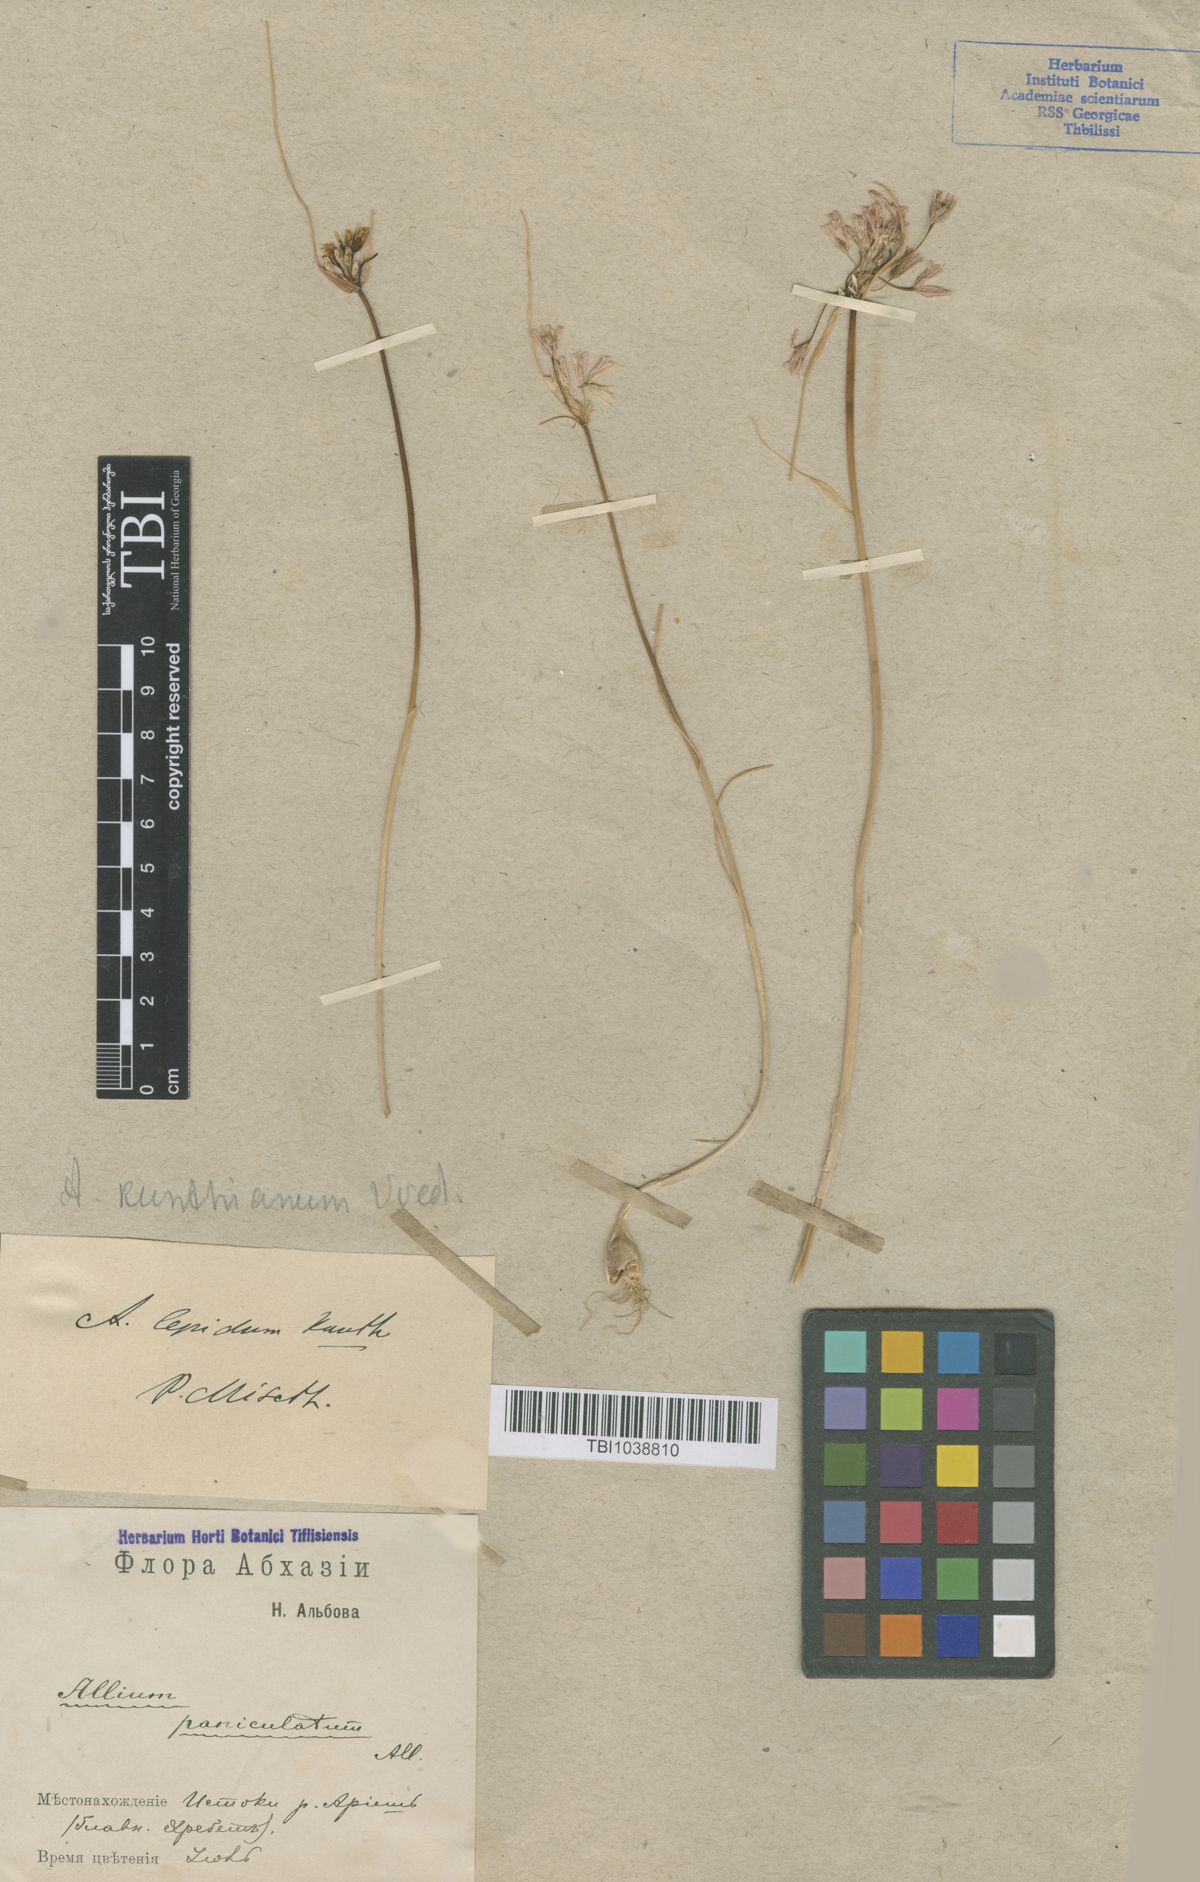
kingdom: Plantae
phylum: Tracheophyta
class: Liliopsida
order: Asparagales
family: Amaryllidaceae
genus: Allium
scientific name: Allium kunthianum
